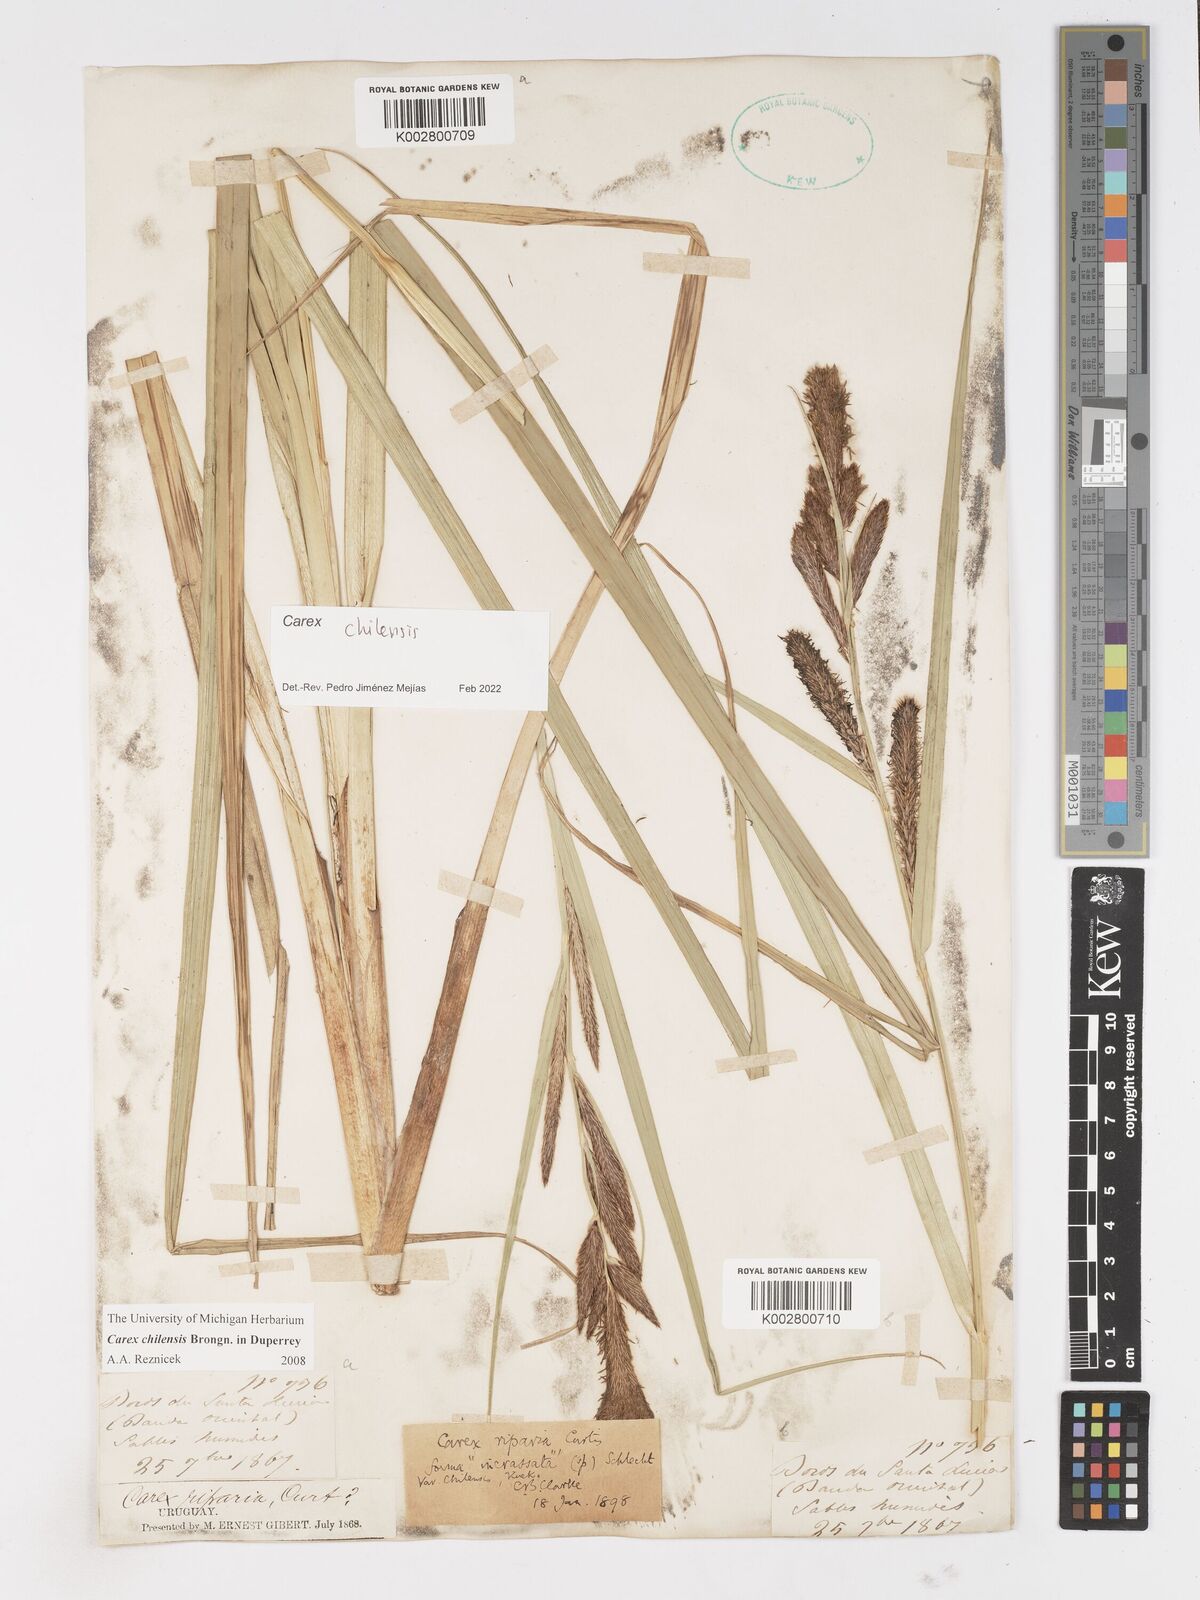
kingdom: Plantae
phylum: Tracheophyta
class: Liliopsida
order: Poales
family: Cyperaceae
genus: Carex
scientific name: Carex chilensis
